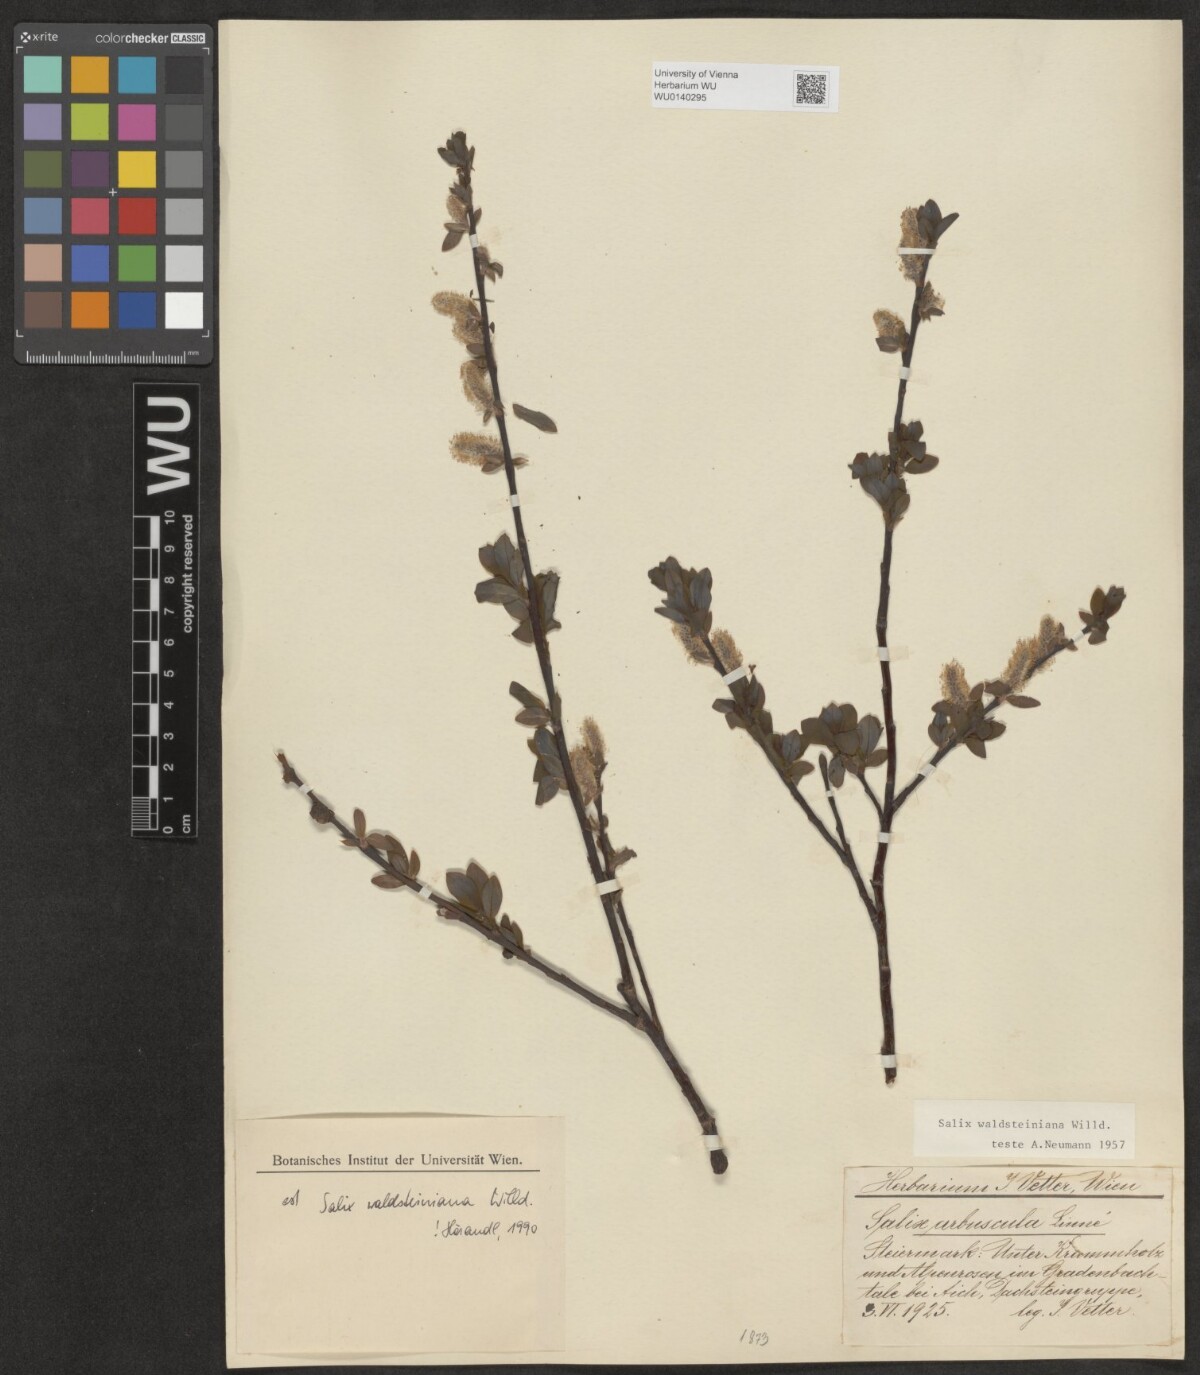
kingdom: Plantae
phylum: Tracheophyta
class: Magnoliopsida
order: Malpighiales
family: Salicaceae
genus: Salix
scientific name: Salix waldsteiniana
